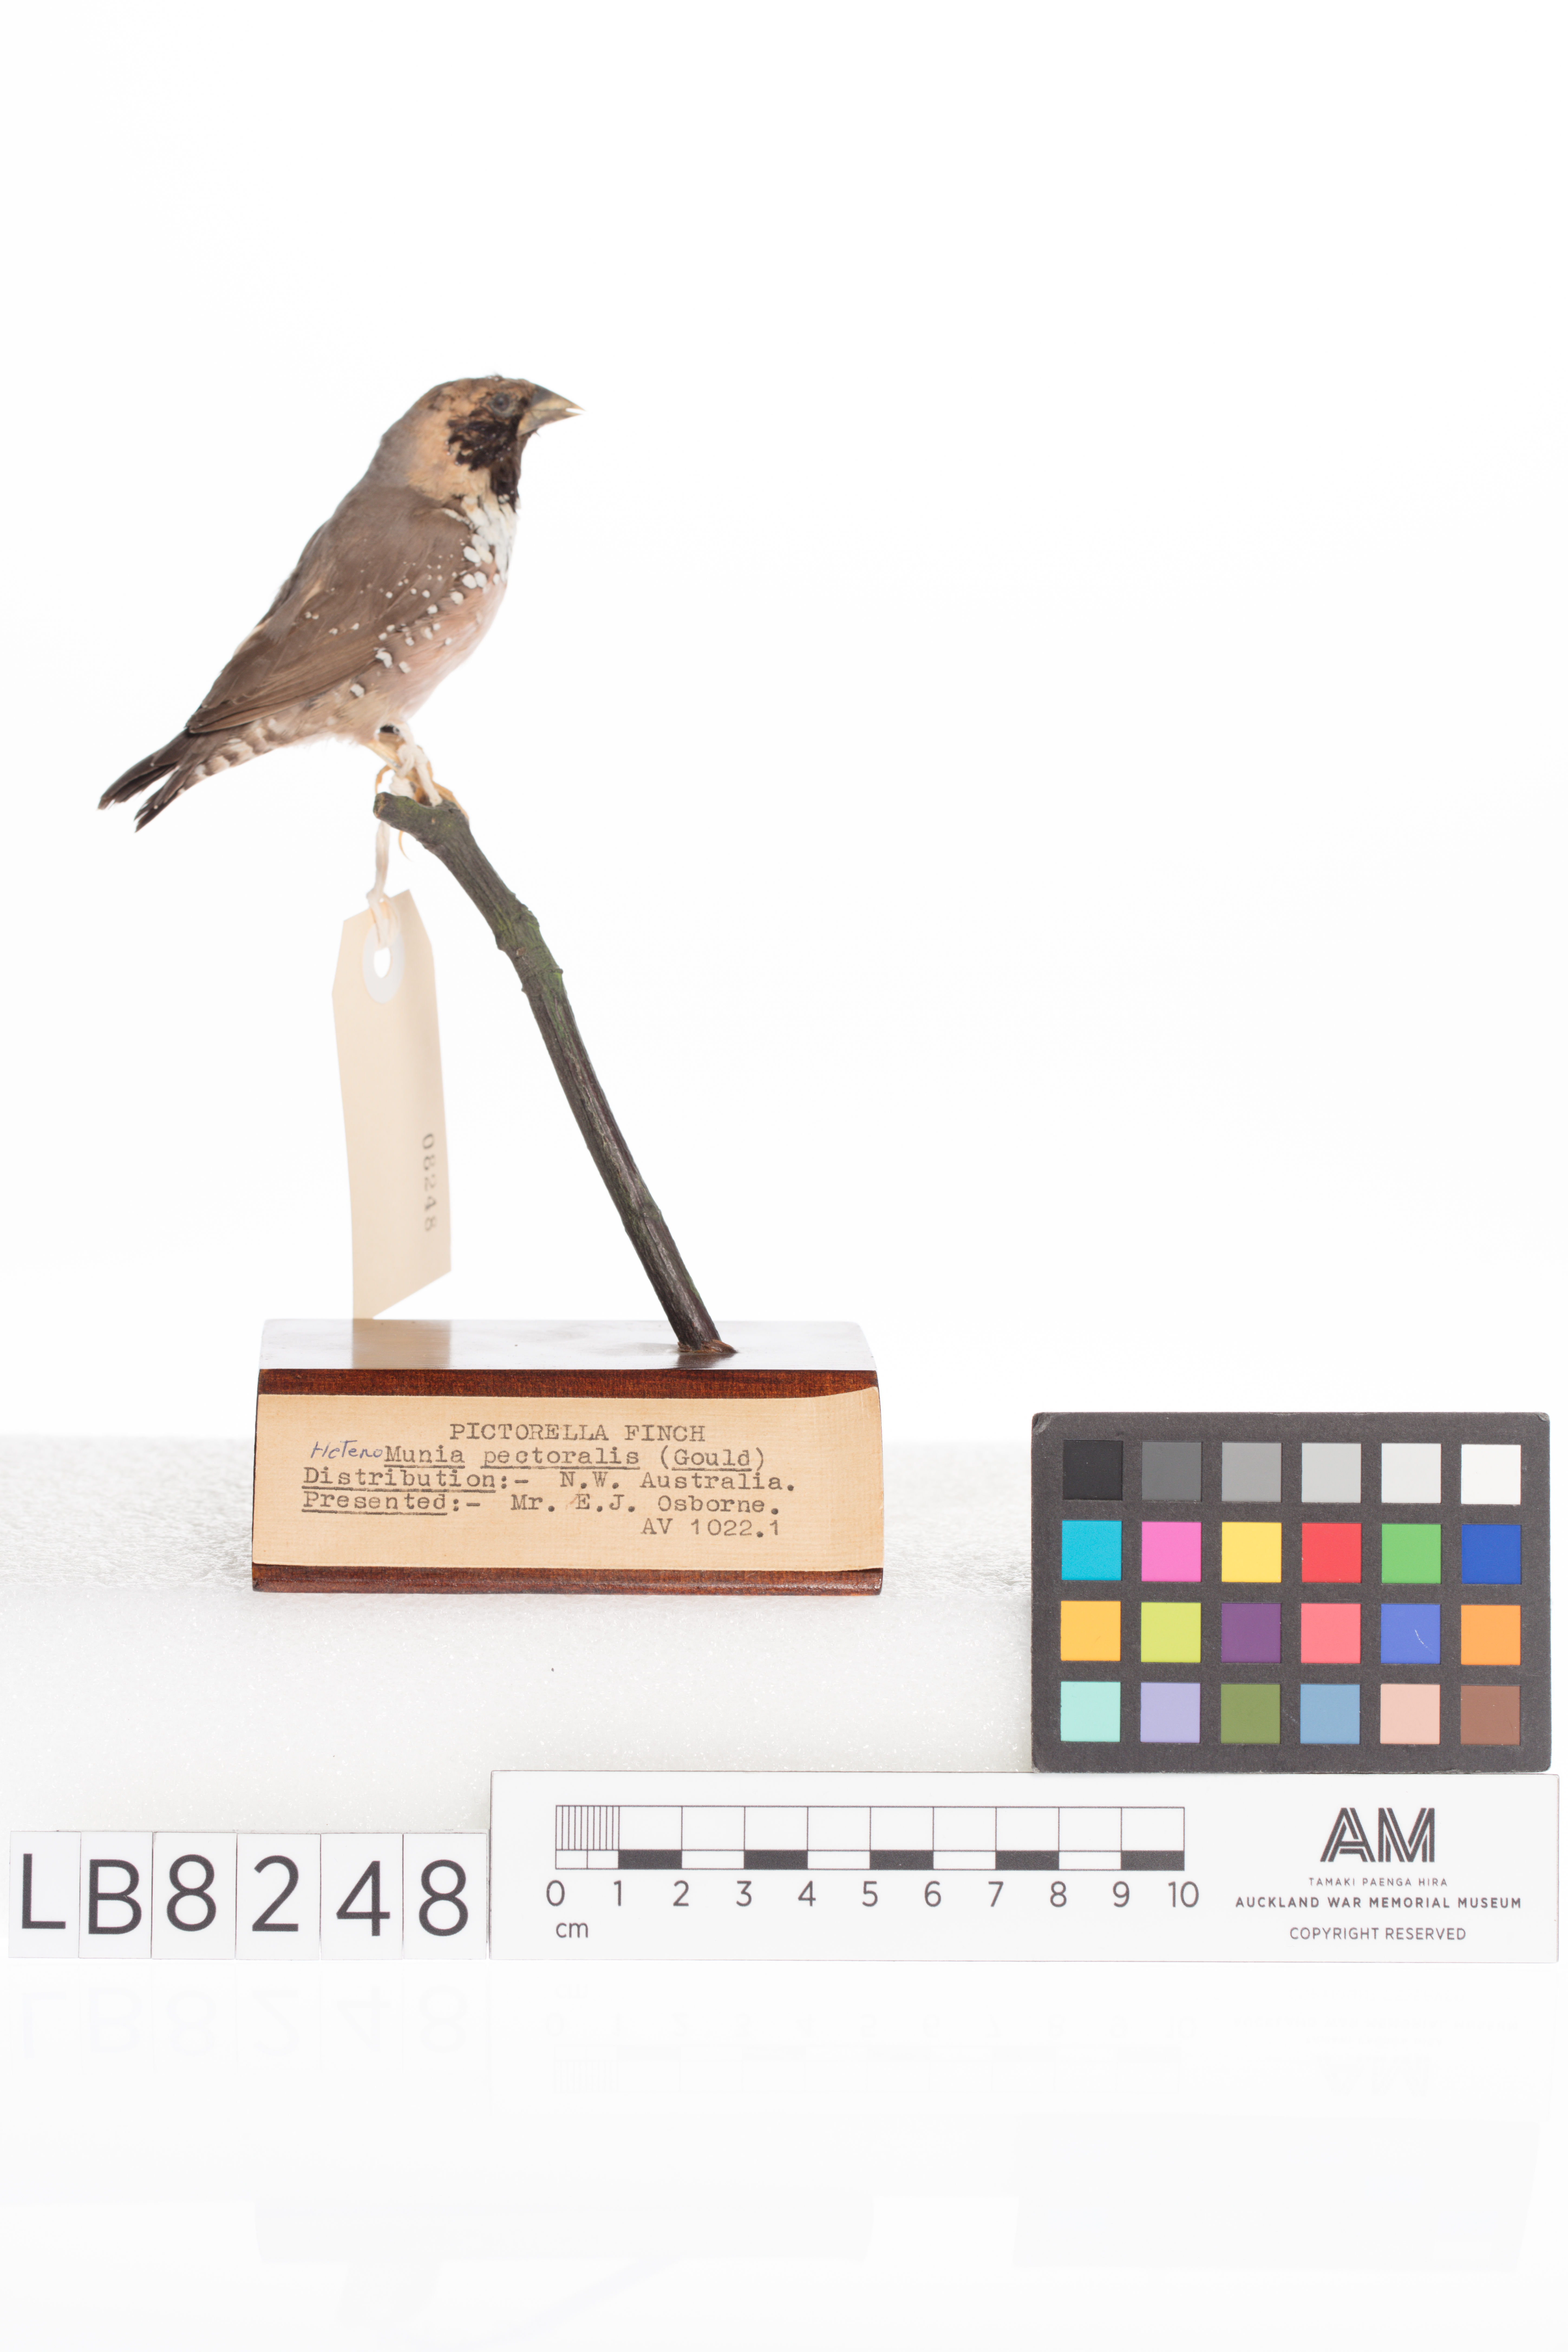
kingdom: Animalia
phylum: Chordata
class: Aves
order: Passeriformes
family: Estrildidae
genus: Lonchura
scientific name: Lonchura
